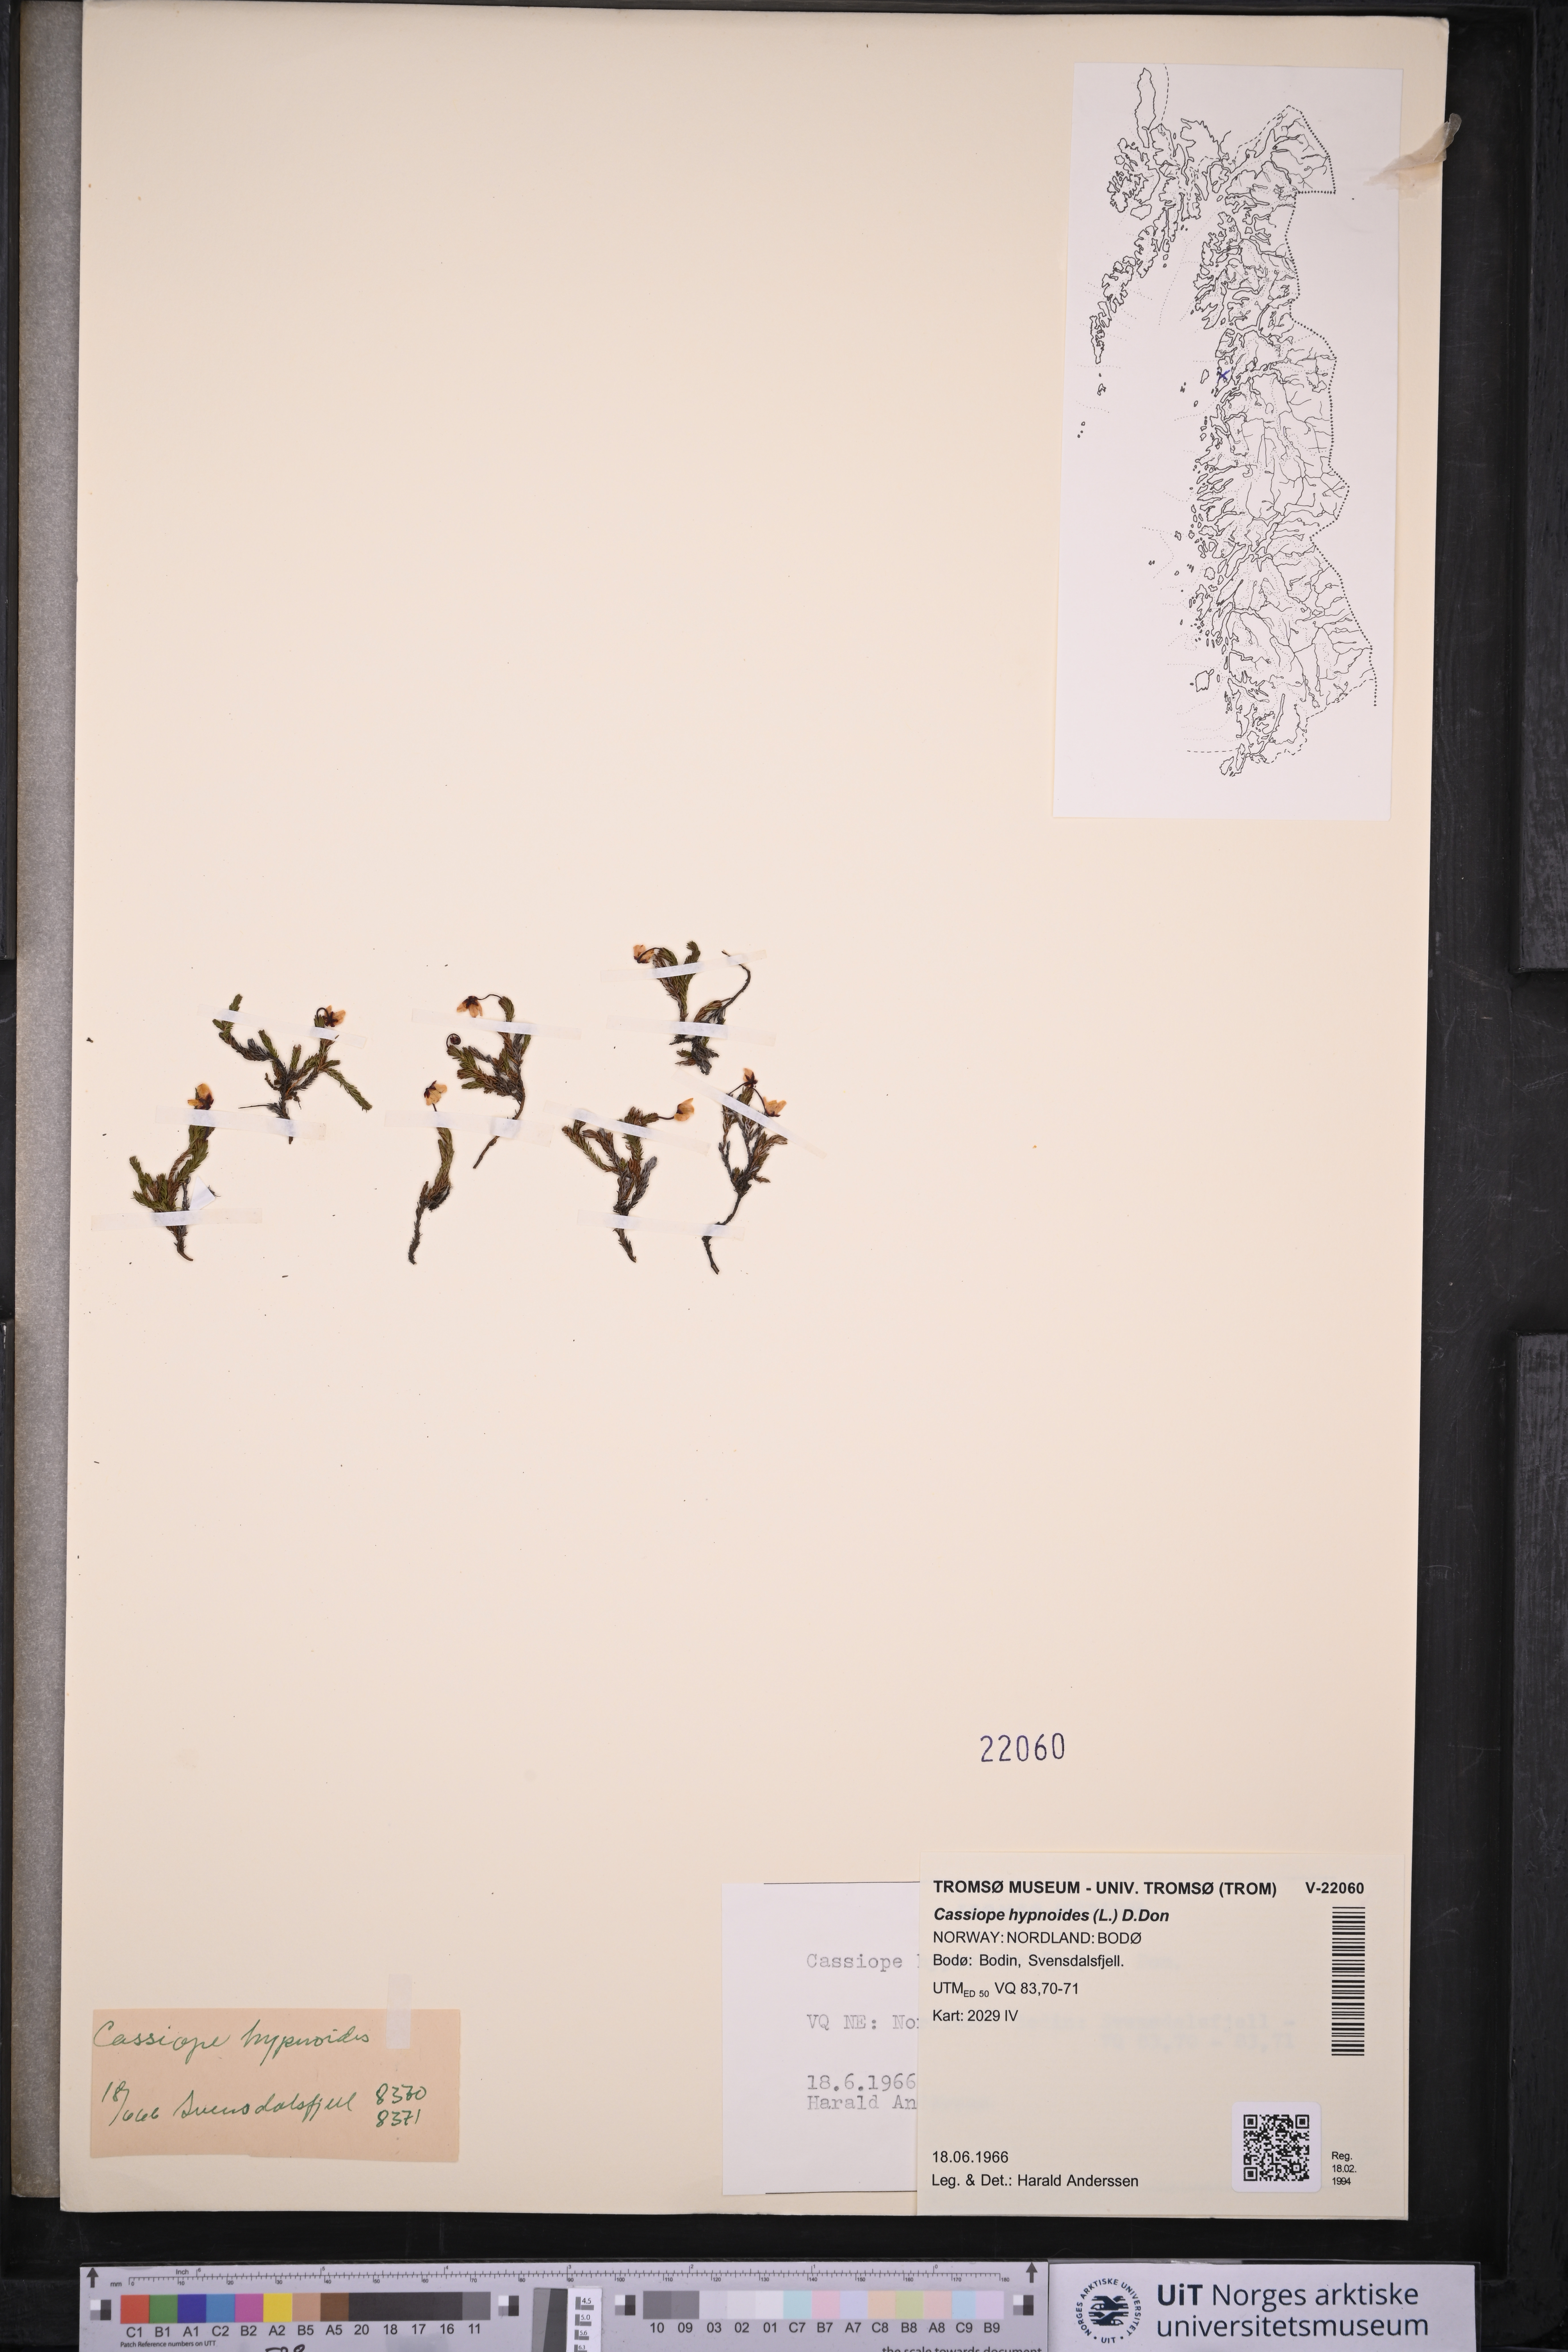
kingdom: Plantae
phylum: Tracheophyta
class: Magnoliopsida
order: Ericales
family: Ericaceae
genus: Harrimanella
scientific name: Harrimanella hypnoides
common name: Moss bell heather
